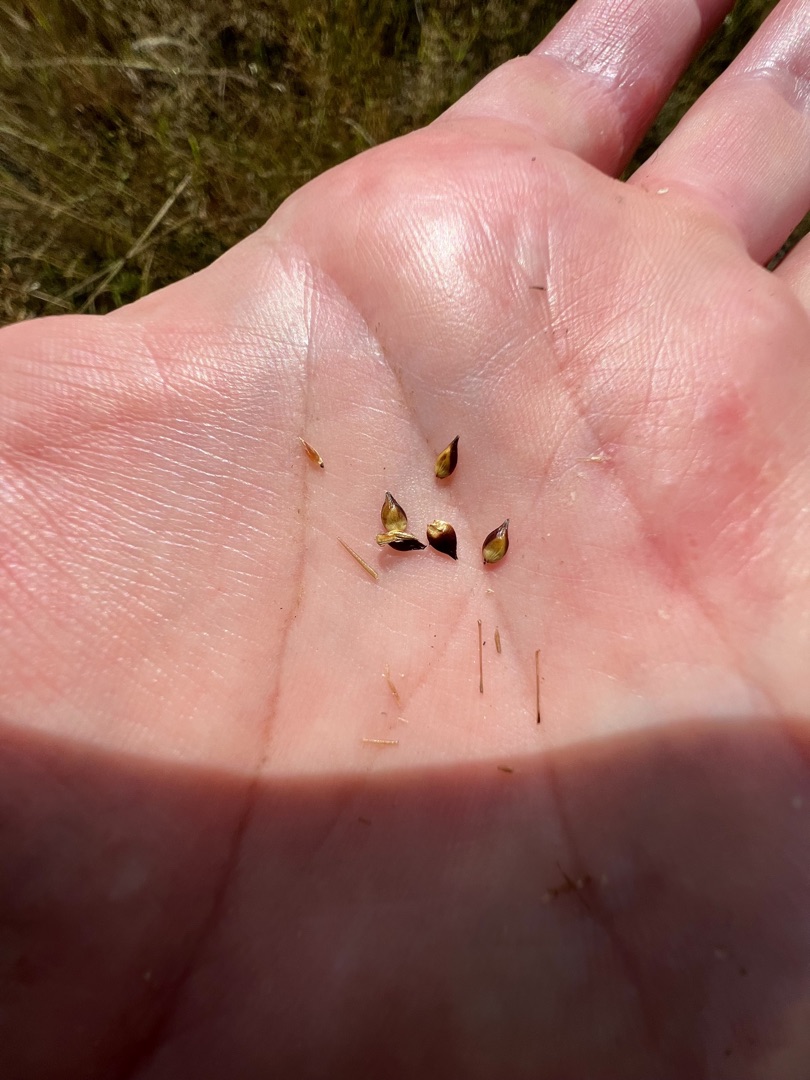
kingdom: Plantae
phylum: Tracheophyta
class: Liliopsida
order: Poales
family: Cyperaceae
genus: Carex
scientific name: Carex spicata
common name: Spidskapslet star
